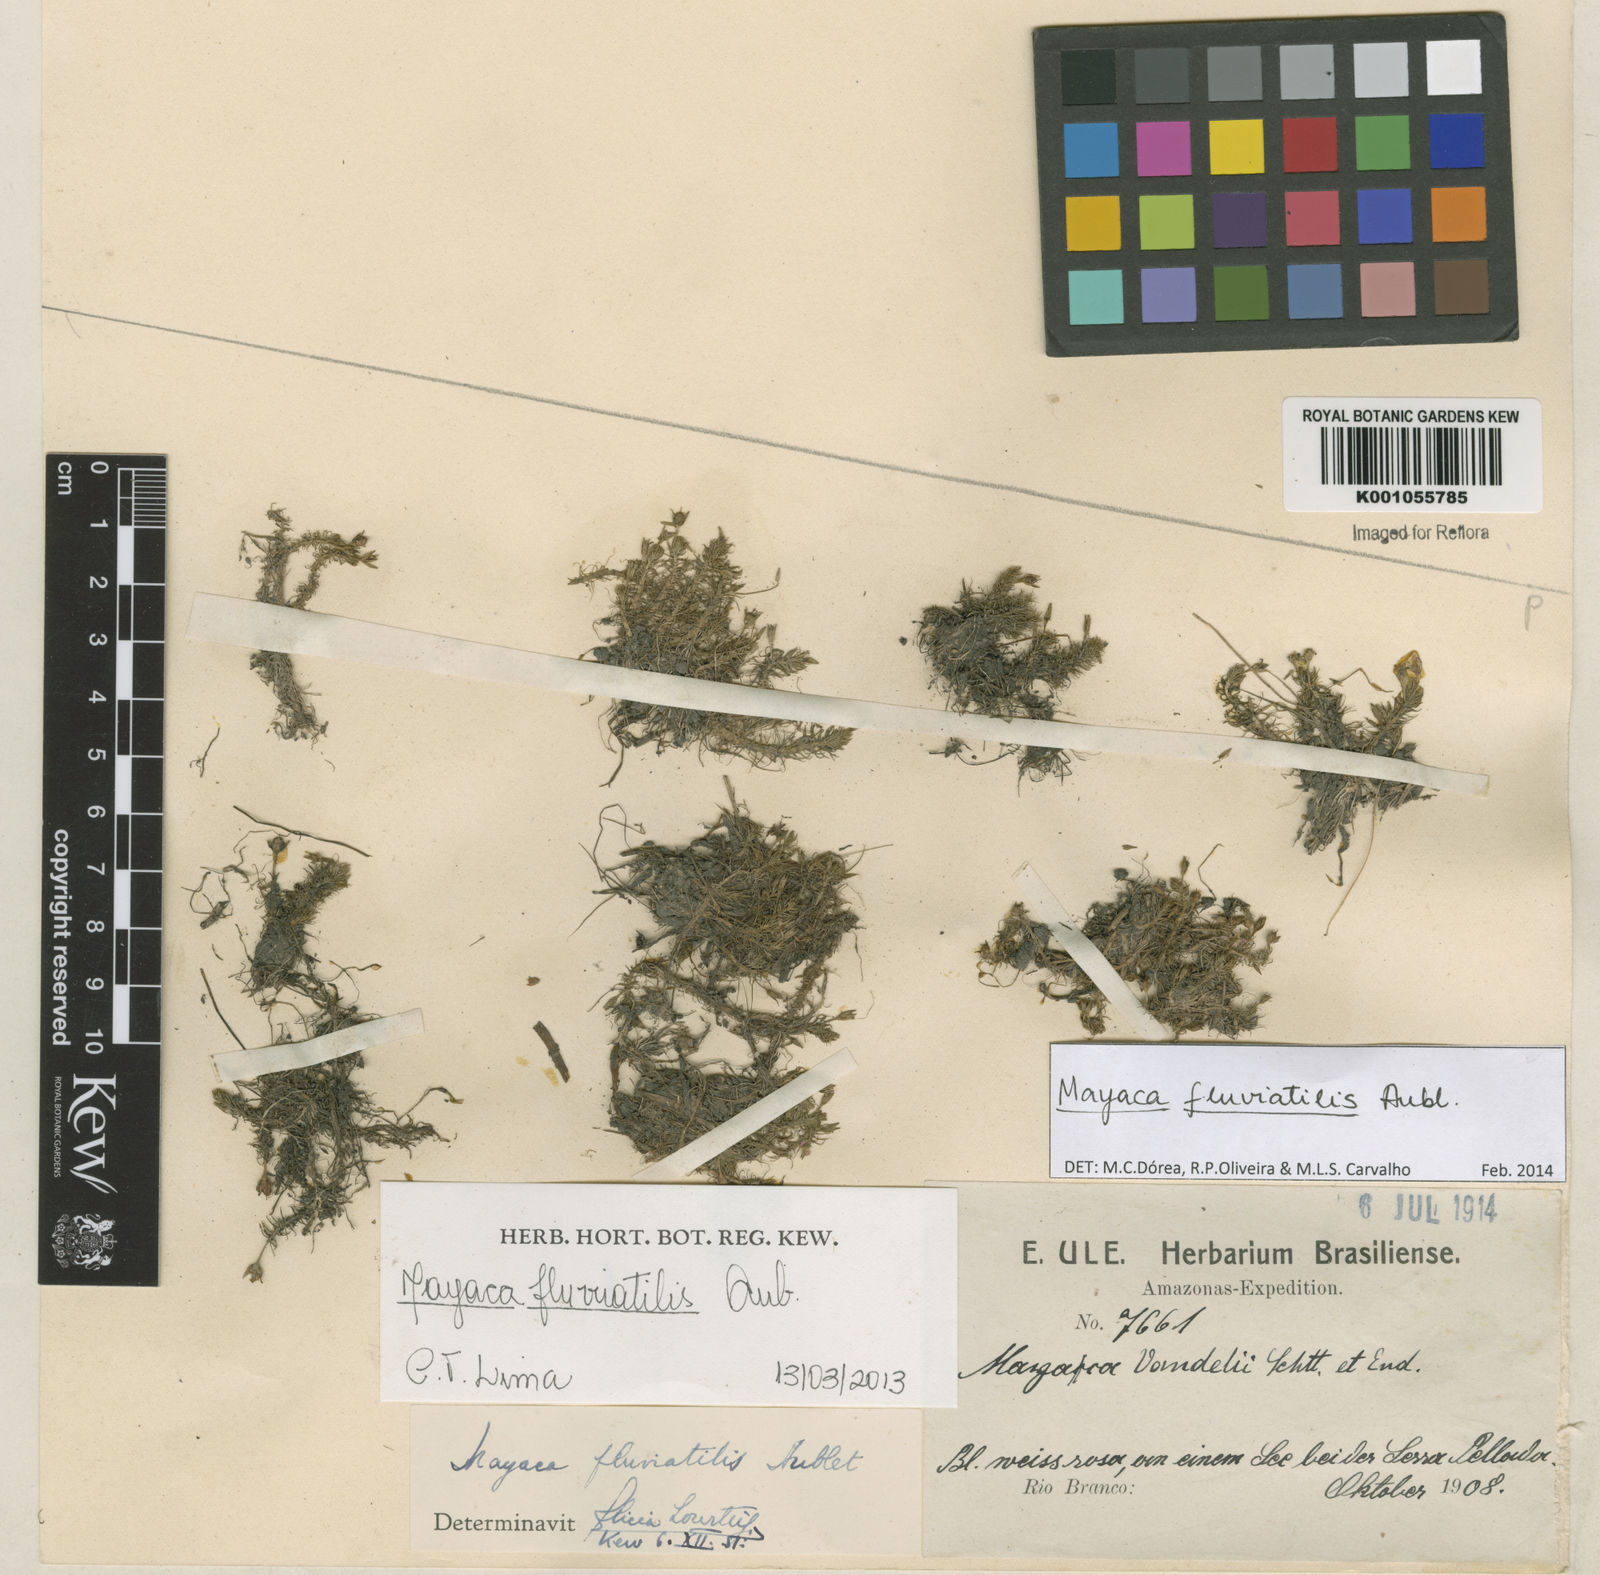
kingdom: Plantae
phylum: Tracheophyta
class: Liliopsida
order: Poales
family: Mayacaceae
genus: Mayaca
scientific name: Mayaca
